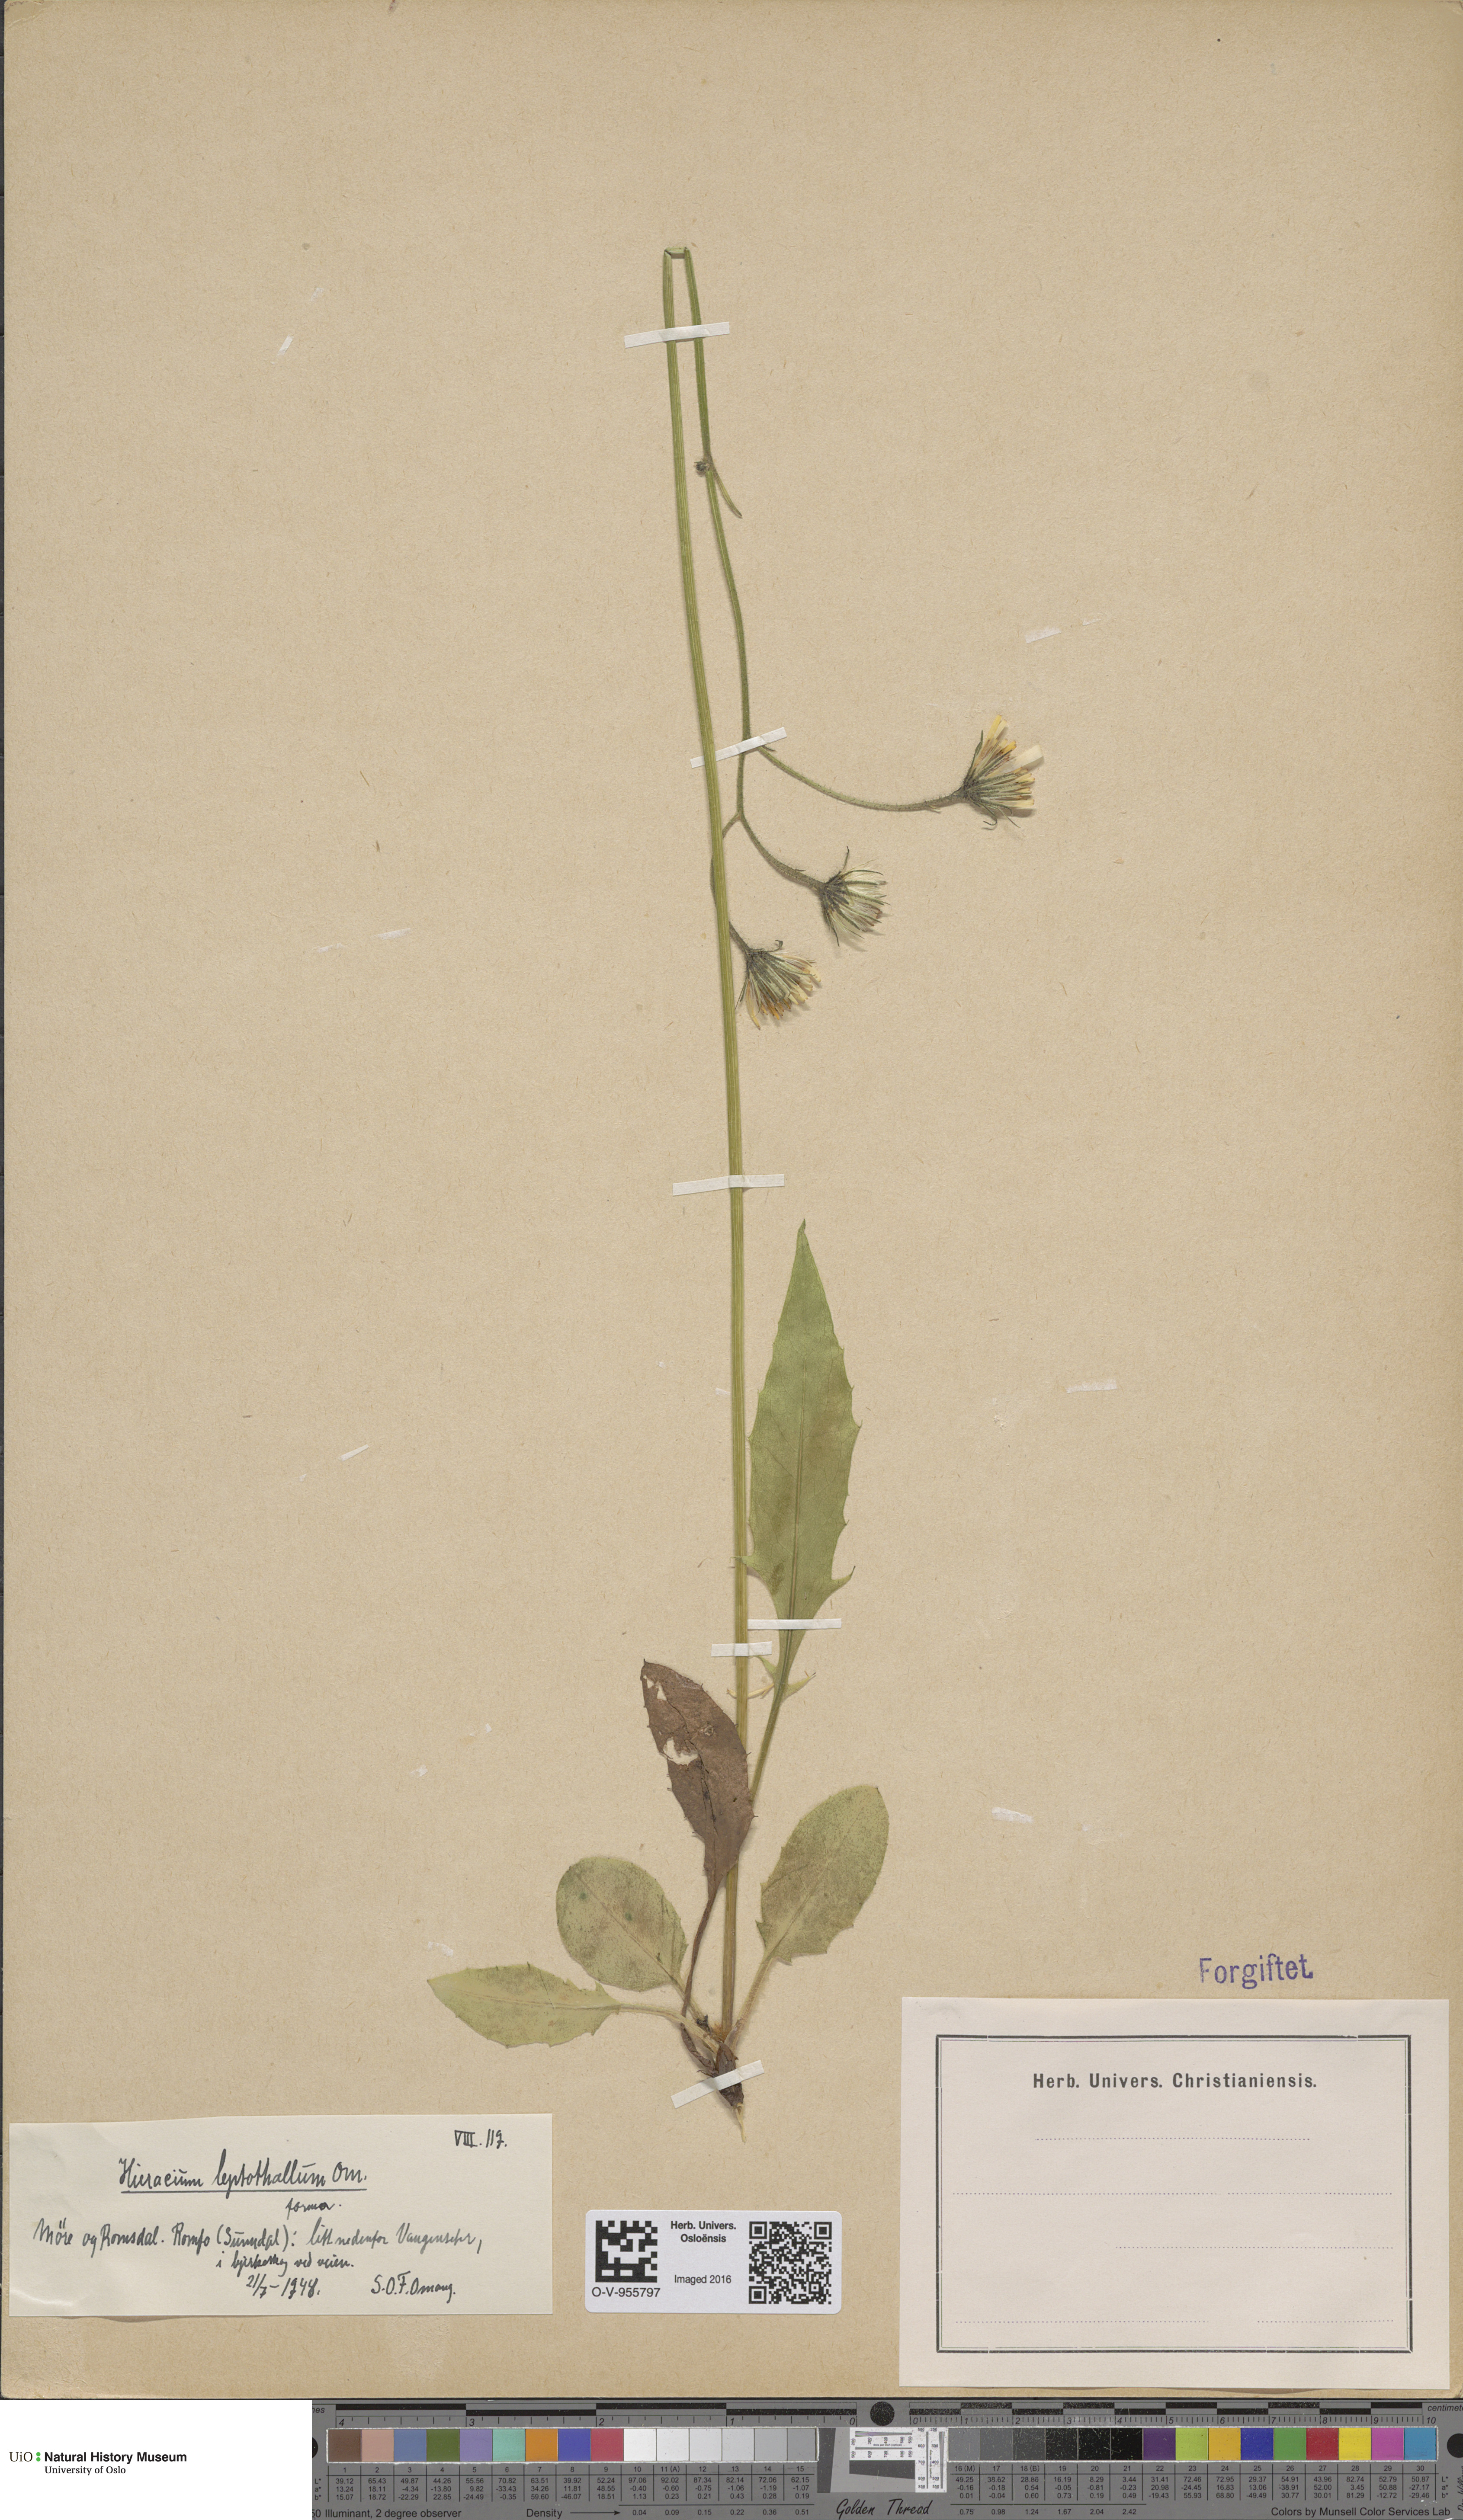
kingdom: Plantae
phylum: Tracheophyta
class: Magnoliopsida
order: Asterales
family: Asteraceae
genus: Hieracium
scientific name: Hieracium
